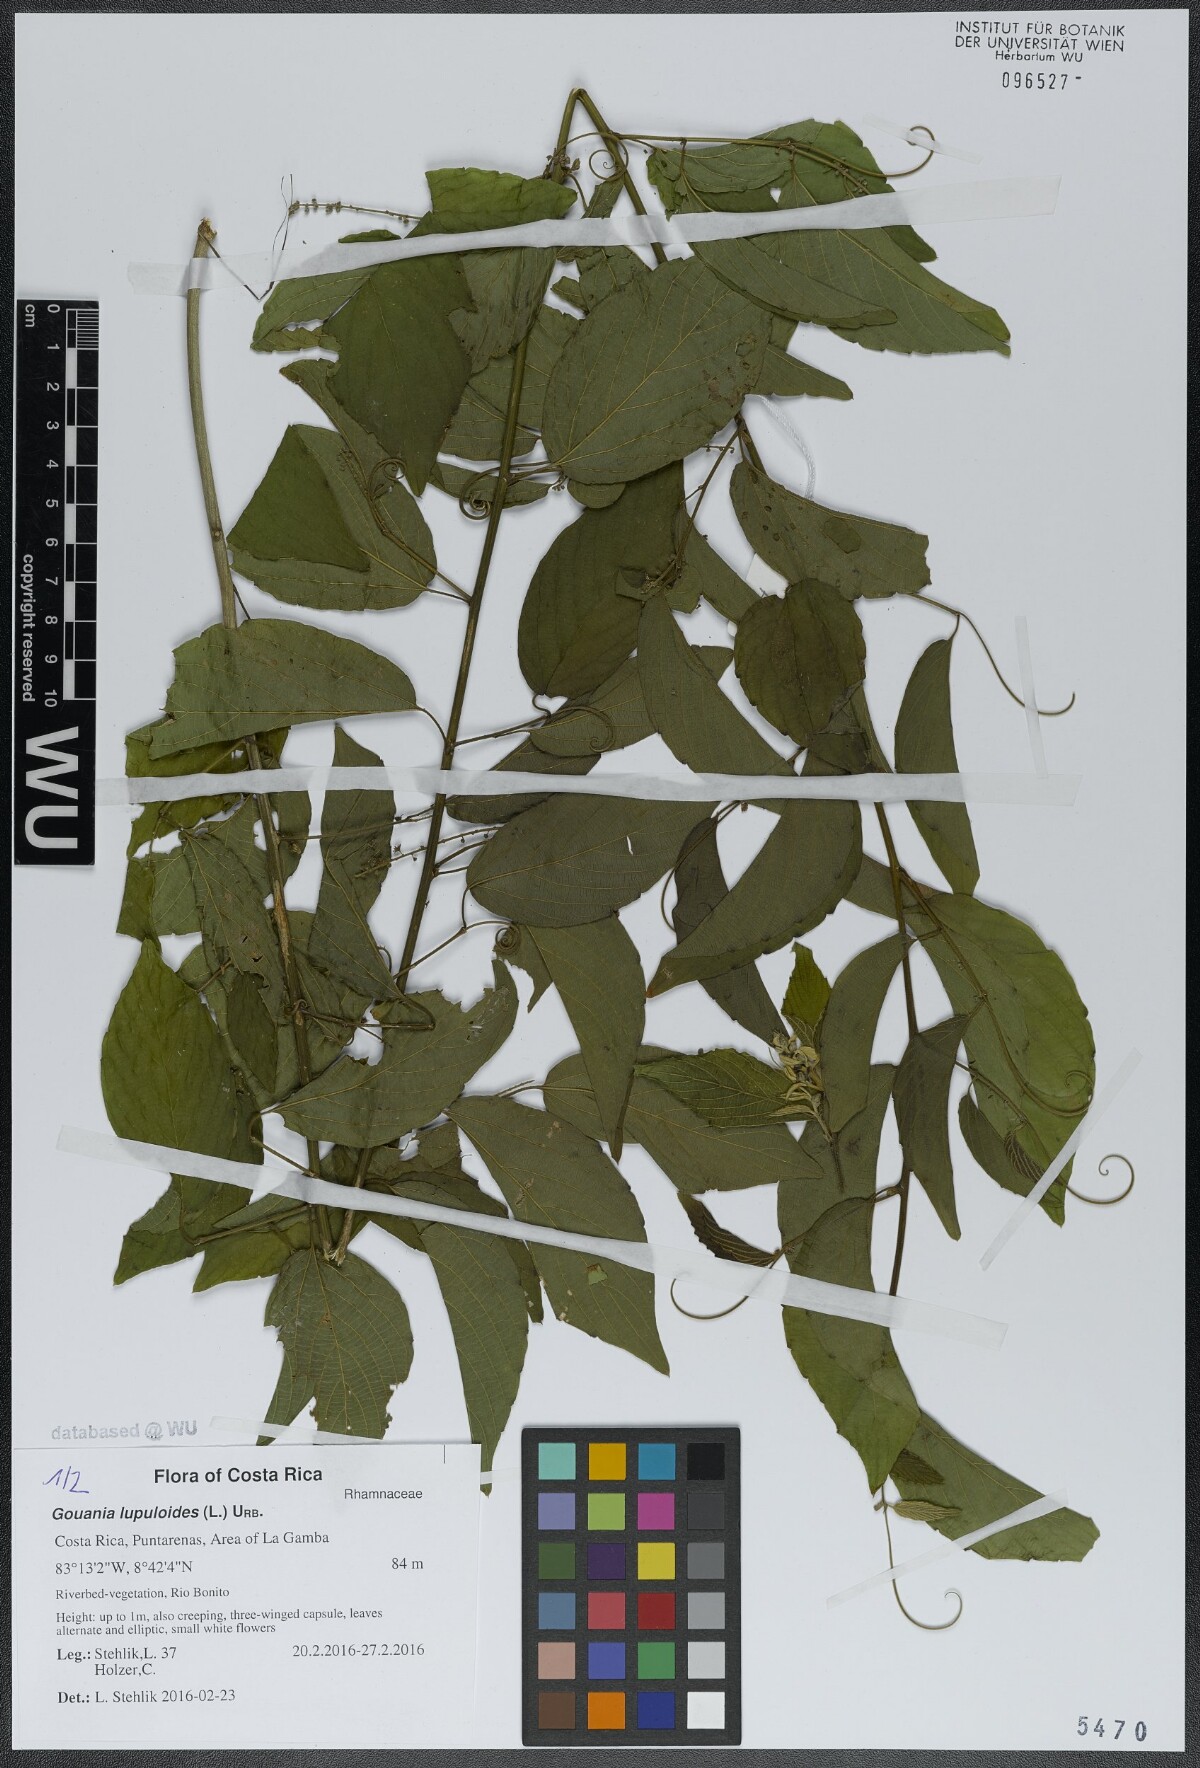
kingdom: Plantae
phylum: Tracheophyta
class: Magnoliopsida
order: Rosales
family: Rhamnaceae
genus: Gouania
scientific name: Gouania lupuloides
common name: Chewstick
